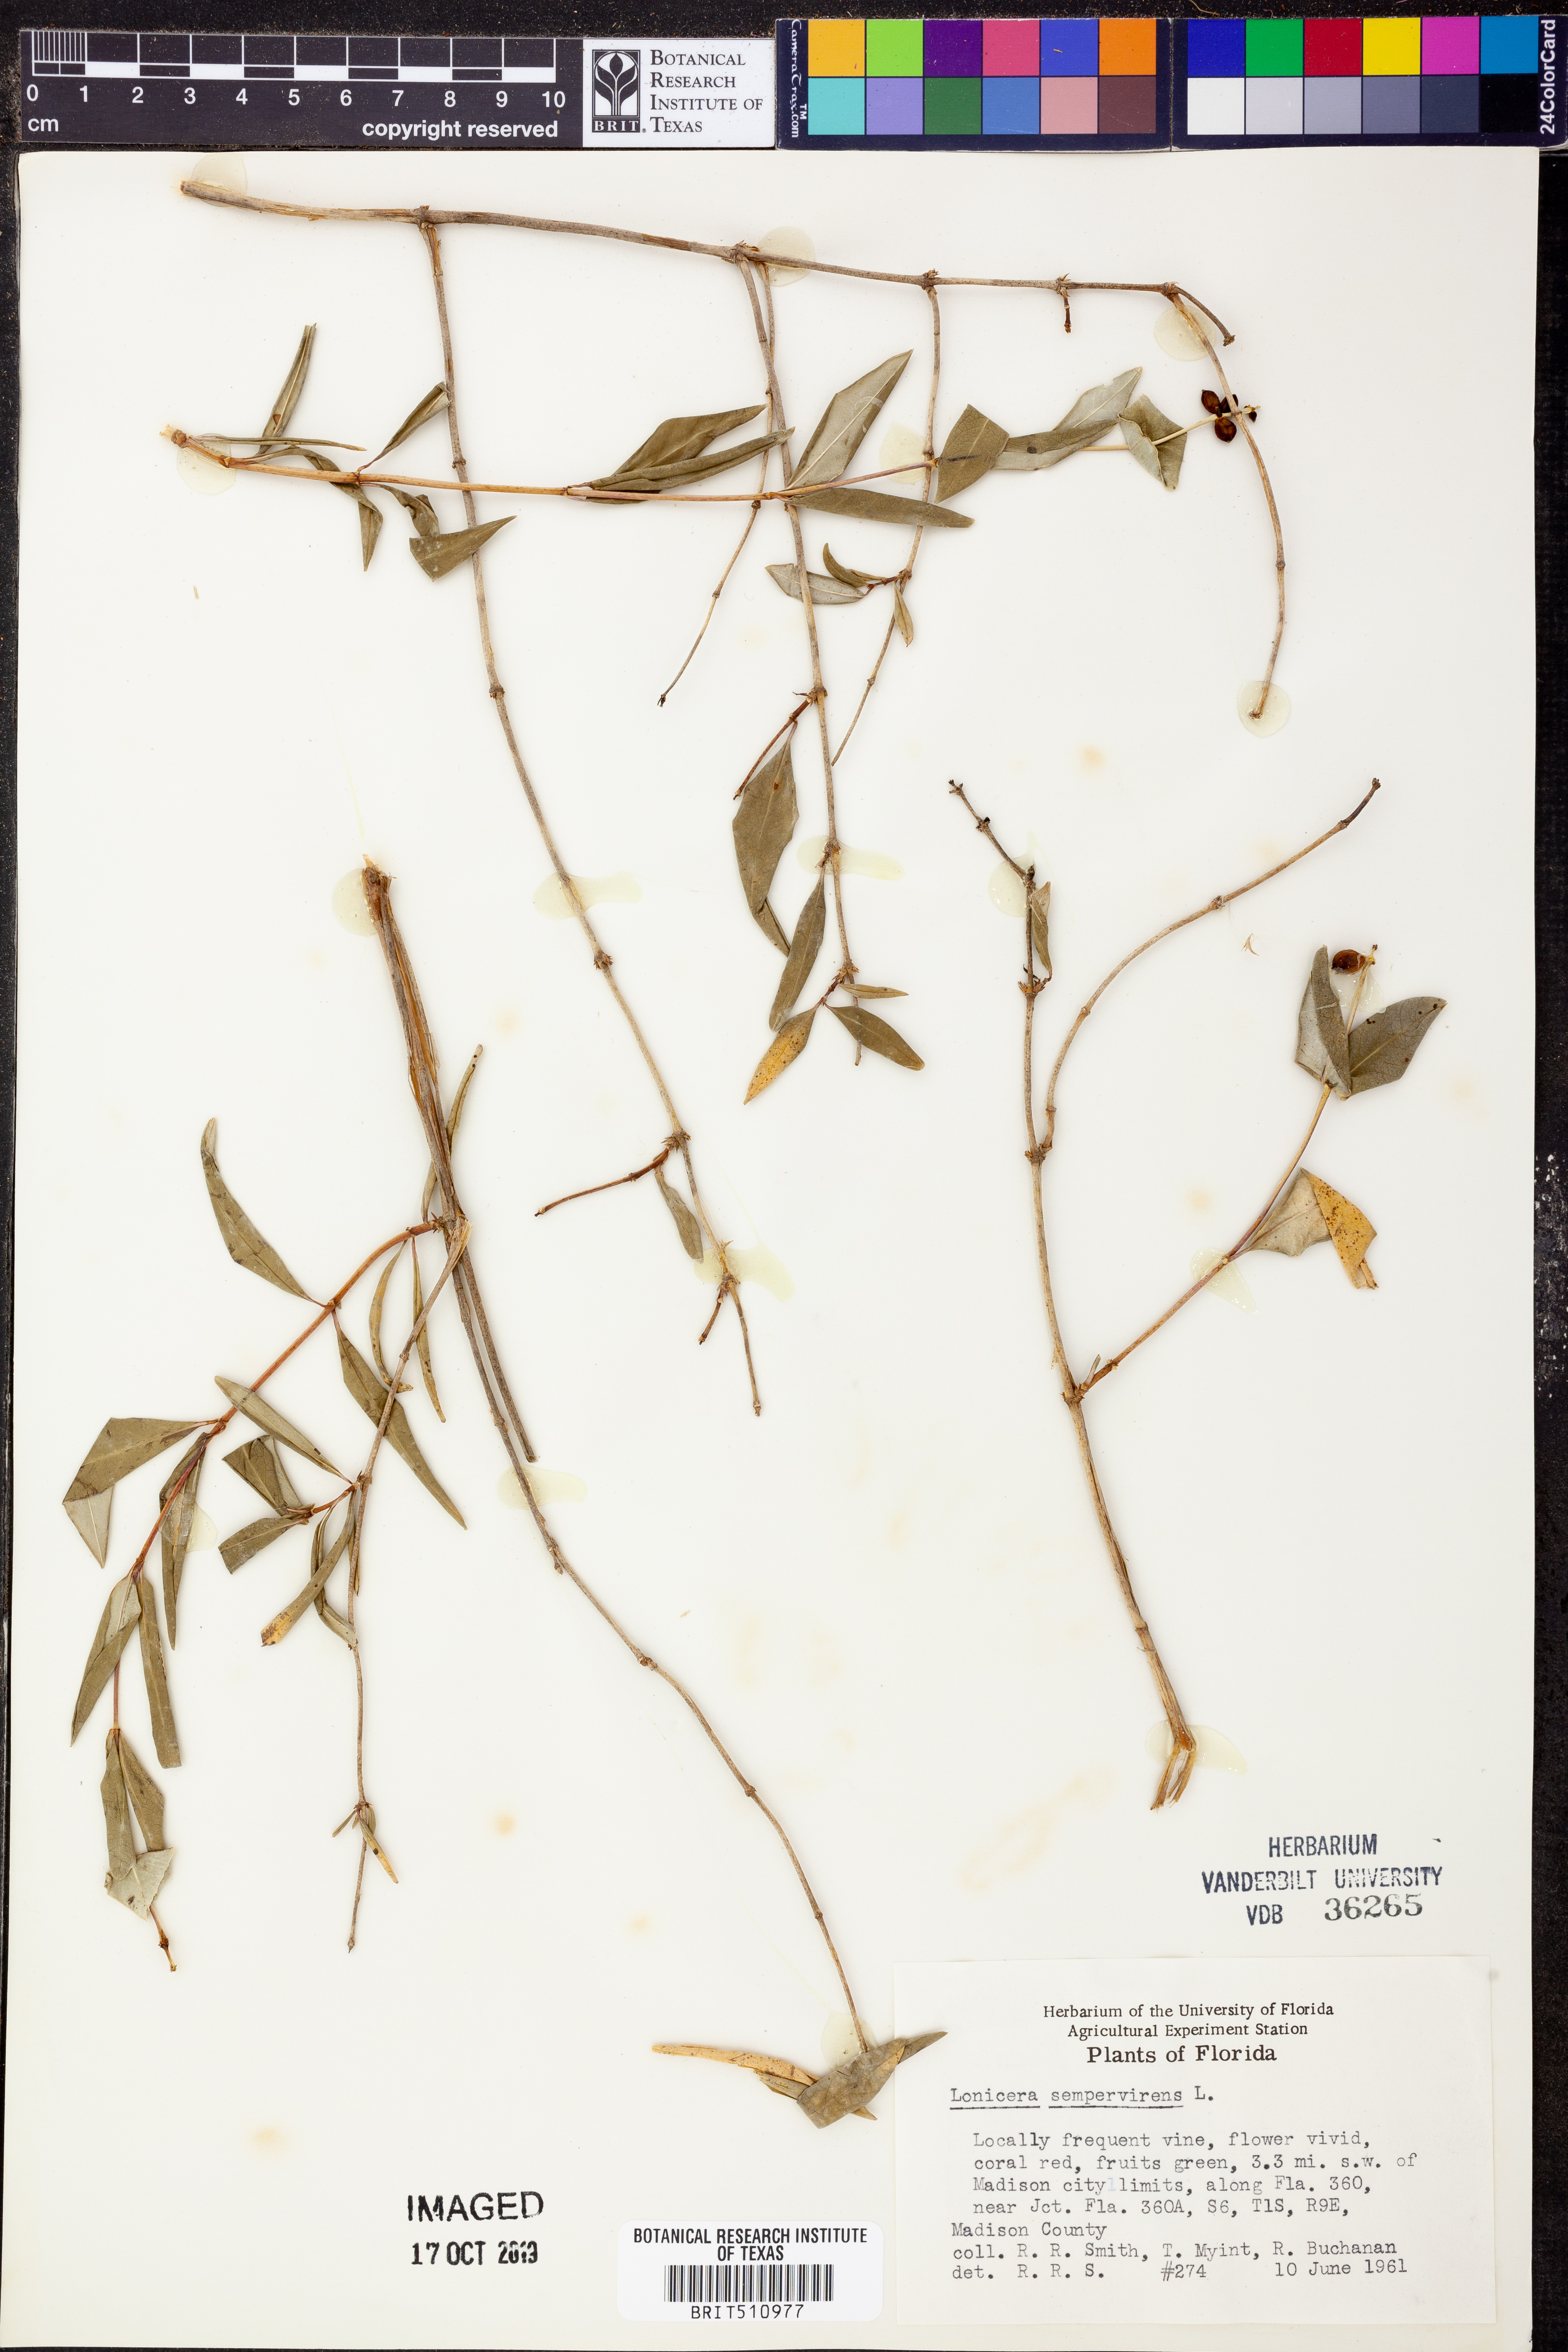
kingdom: Plantae
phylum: Tracheophyta
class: Magnoliopsida
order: Dipsacales
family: Caprifoliaceae
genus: Lonicera
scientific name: Lonicera sempervirens
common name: Coral honeysuckle
